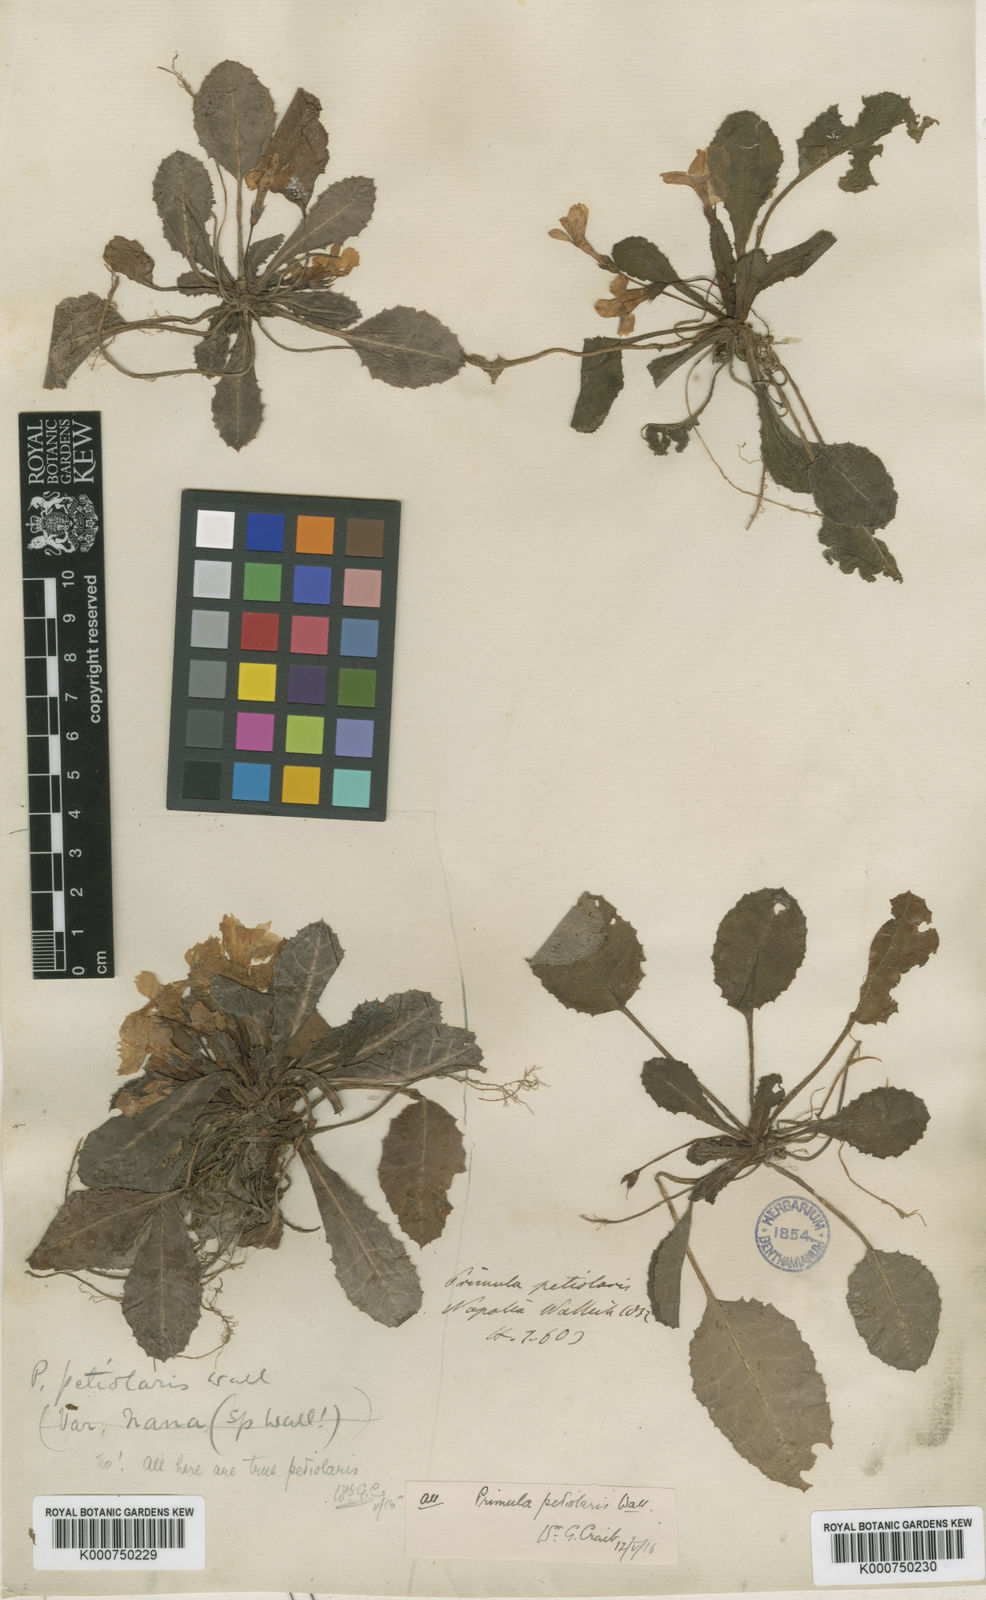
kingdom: Plantae
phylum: Tracheophyta
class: Magnoliopsida
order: Ericales
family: Primulaceae
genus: Primula
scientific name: Primula petiolaris
